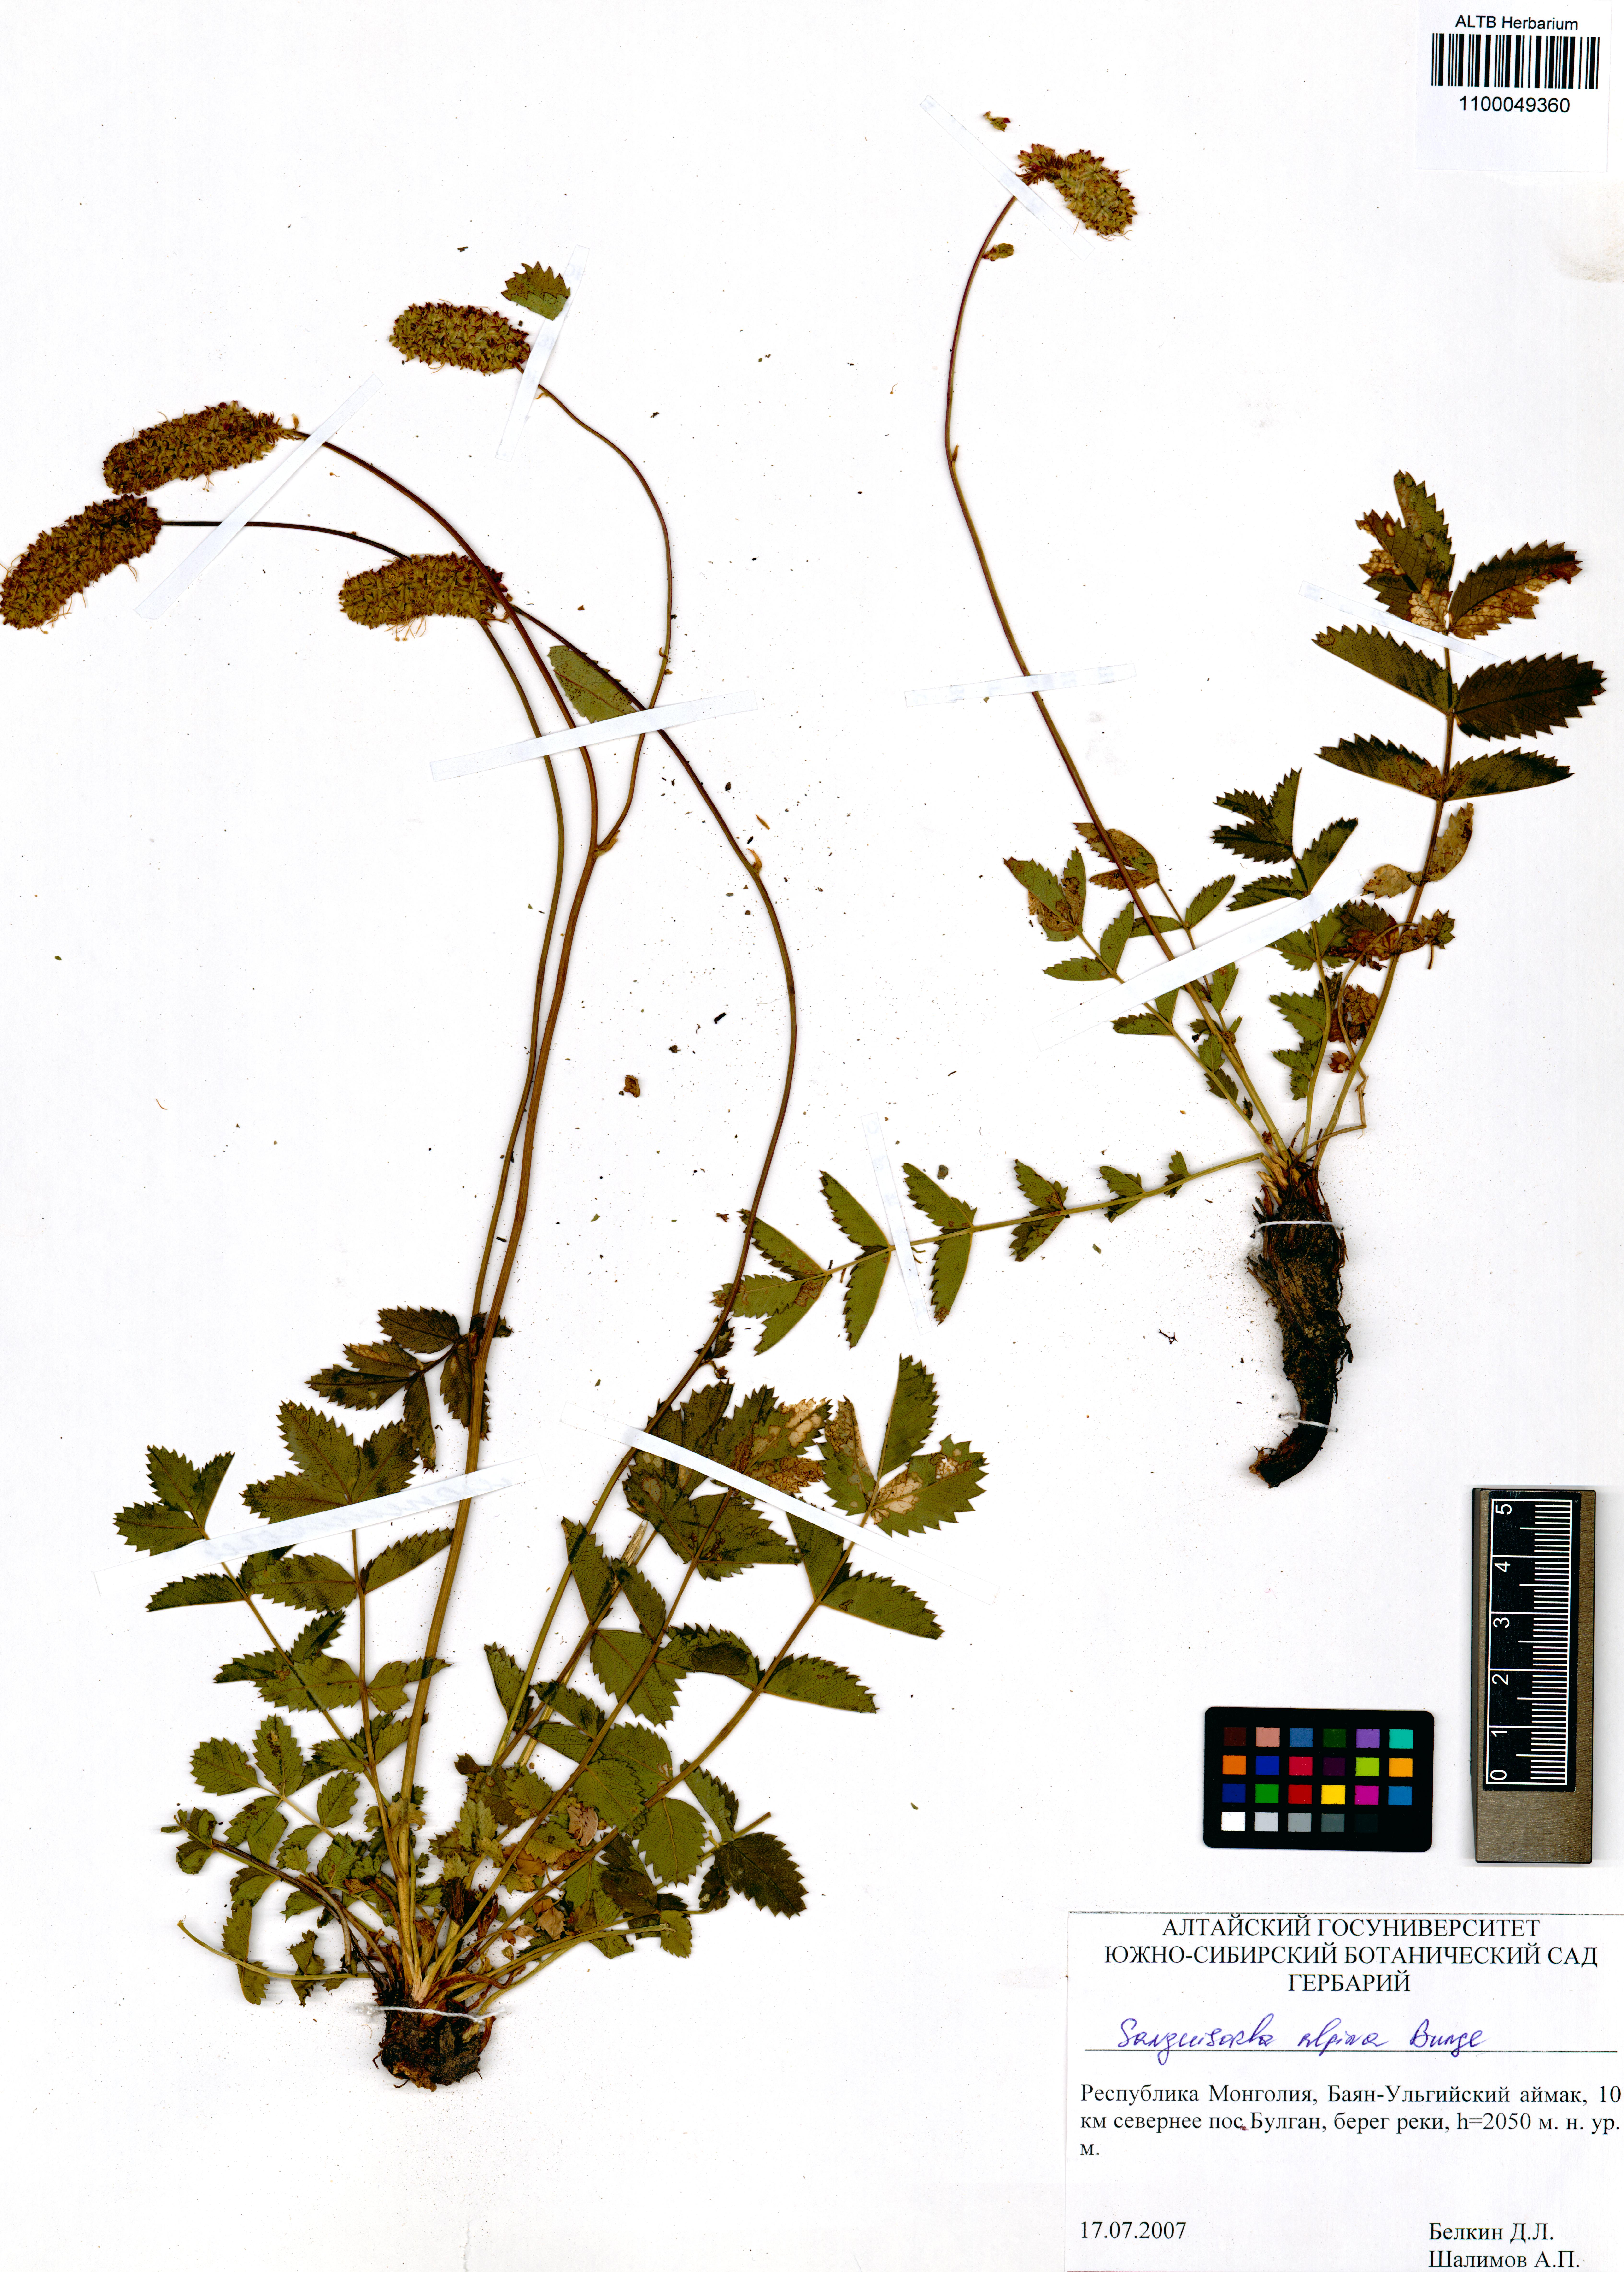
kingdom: Plantae
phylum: Tracheophyta
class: Magnoliopsida
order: Rosales
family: Rosaceae
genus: Sanguisorba
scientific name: Sanguisorba alpina
